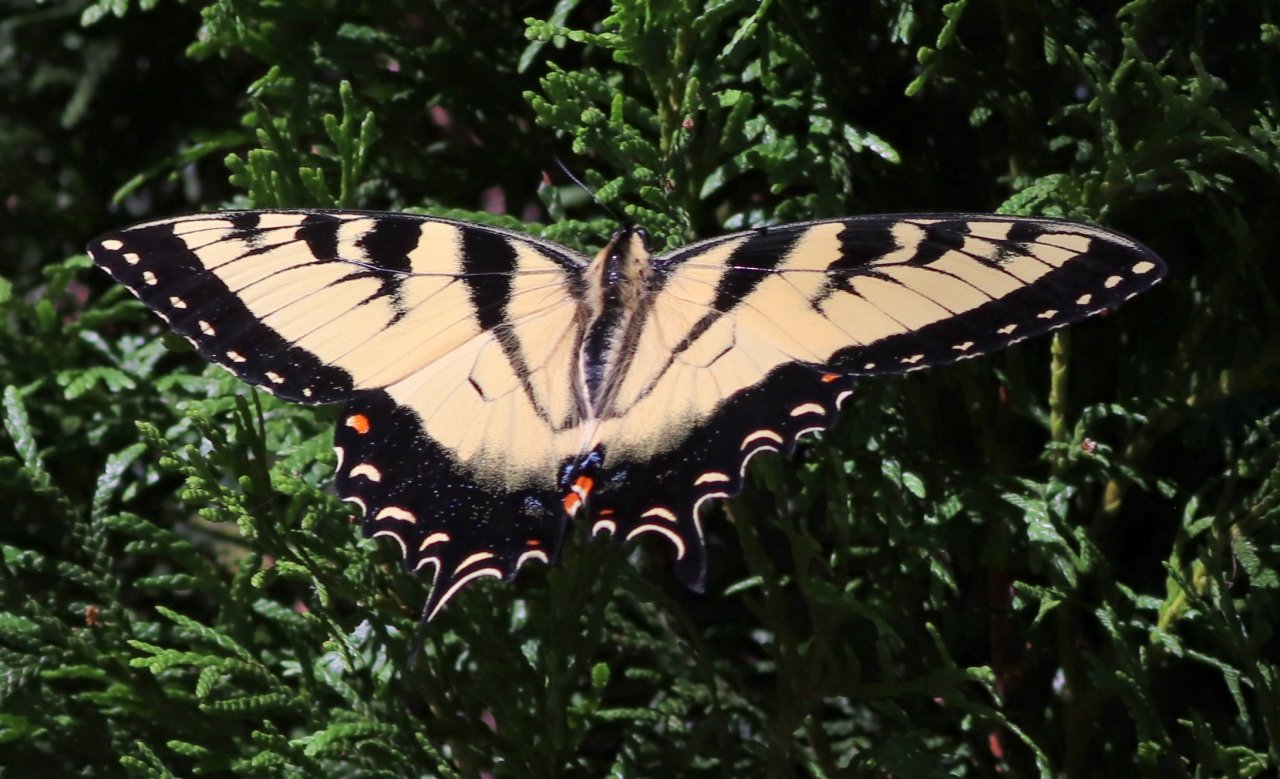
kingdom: Animalia
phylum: Arthropoda
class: Insecta
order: Lepidoptera
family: Papilionidae
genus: Pterourus
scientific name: Pterourus glaucus
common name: Eastern Tiger Swallowtail
